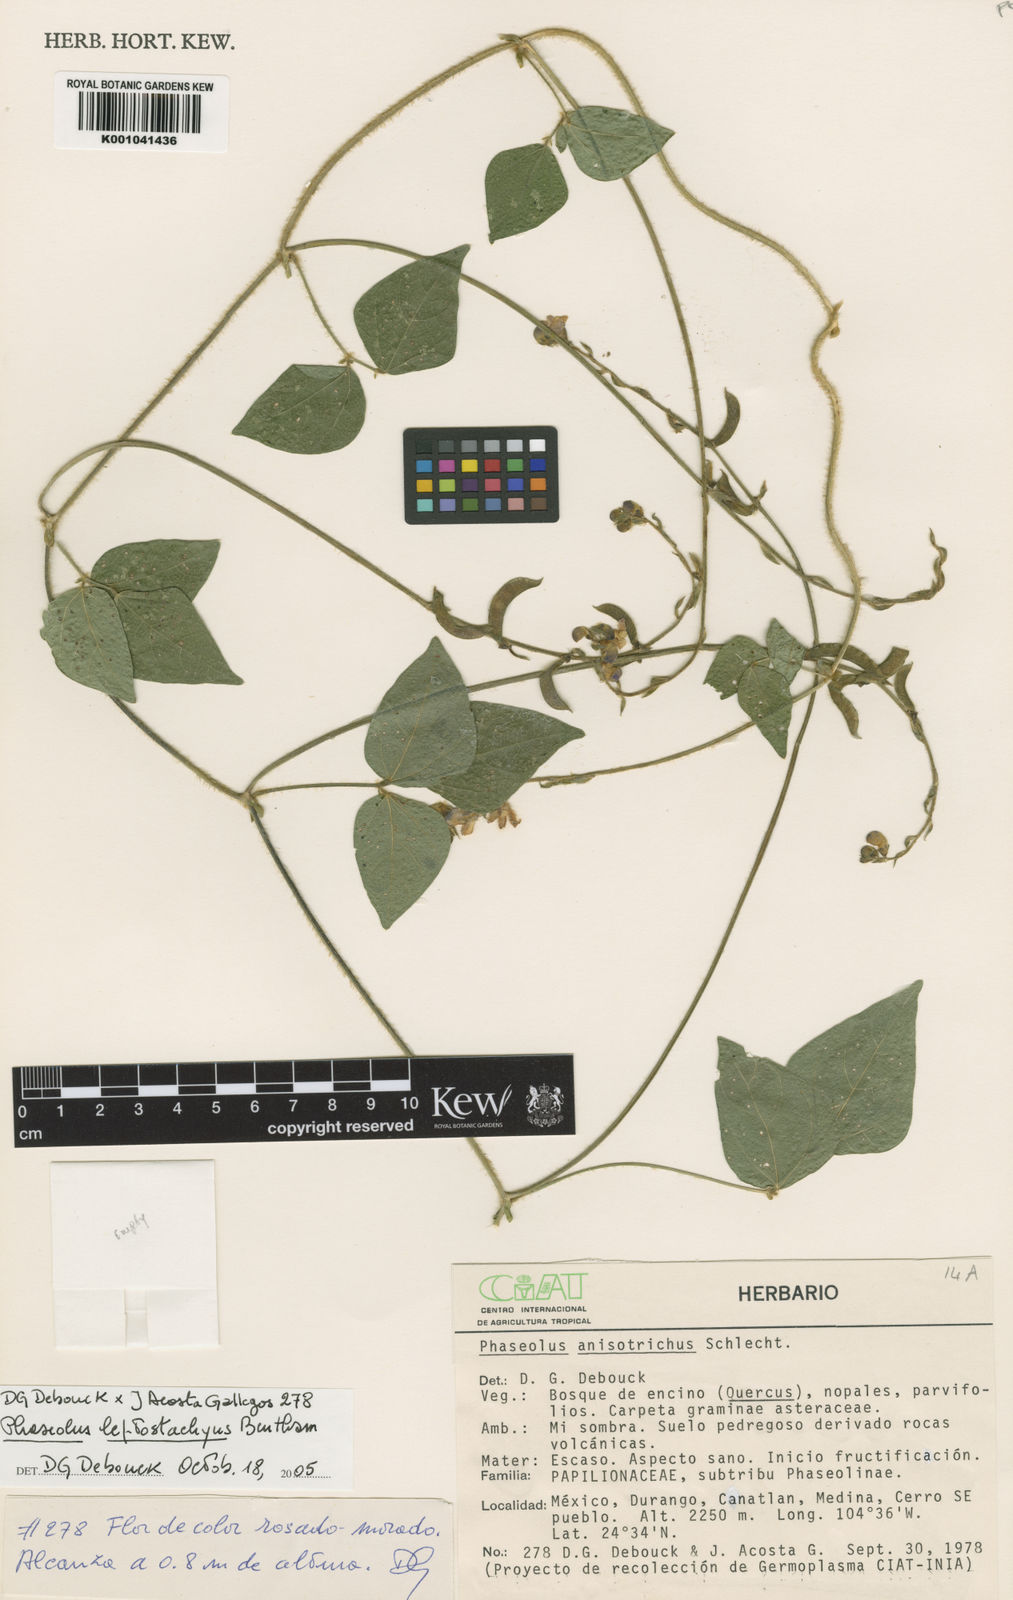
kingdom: Plantae
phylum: Tracheophyta
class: Magnoliopsida
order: Fabales
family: Fabaceae
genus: Phaseolus
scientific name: Phaseolus
